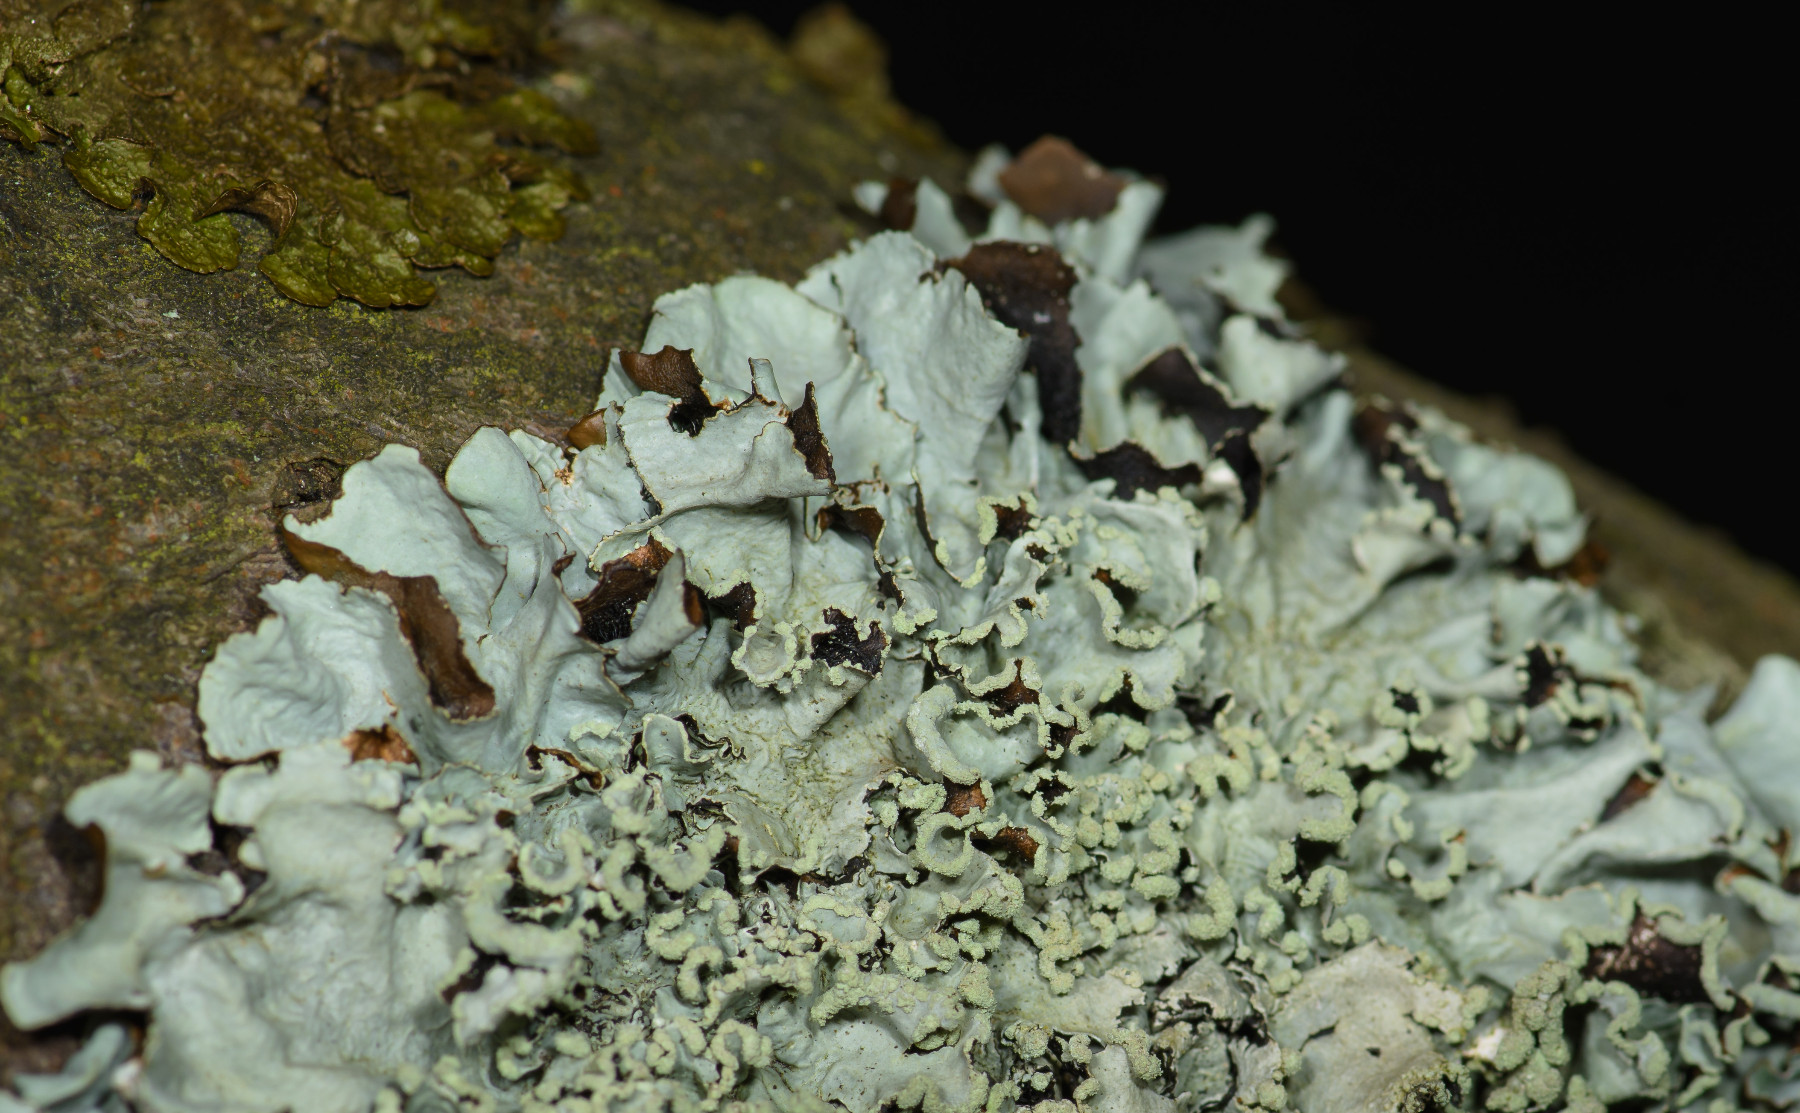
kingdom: Fungi
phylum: Ascomycota
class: Lecanoromycetes
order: Lecanorales
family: Parmeliaceae
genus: Parmotrema
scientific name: Parmotrema perlatum
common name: trådet skållav
